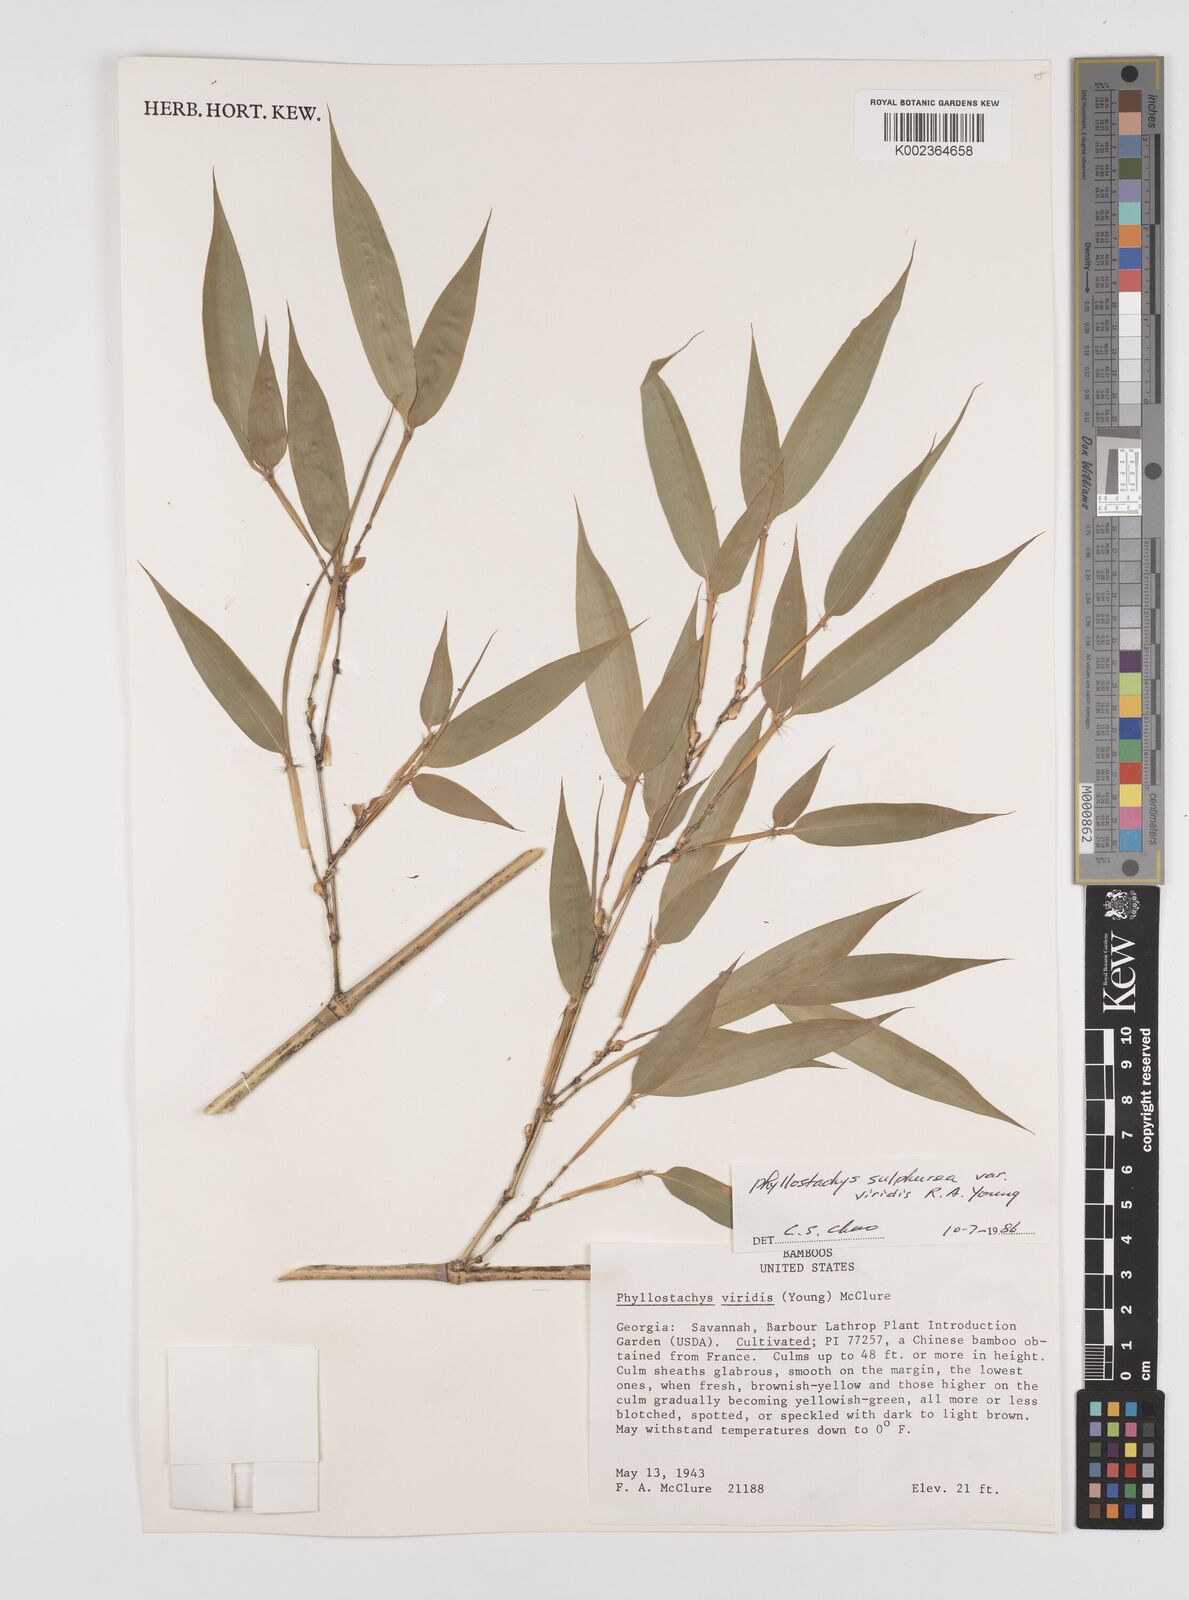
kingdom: Plantae
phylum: Tracheophyta
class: Liliopsida
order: Poales
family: Poaceae
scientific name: Poaceae
